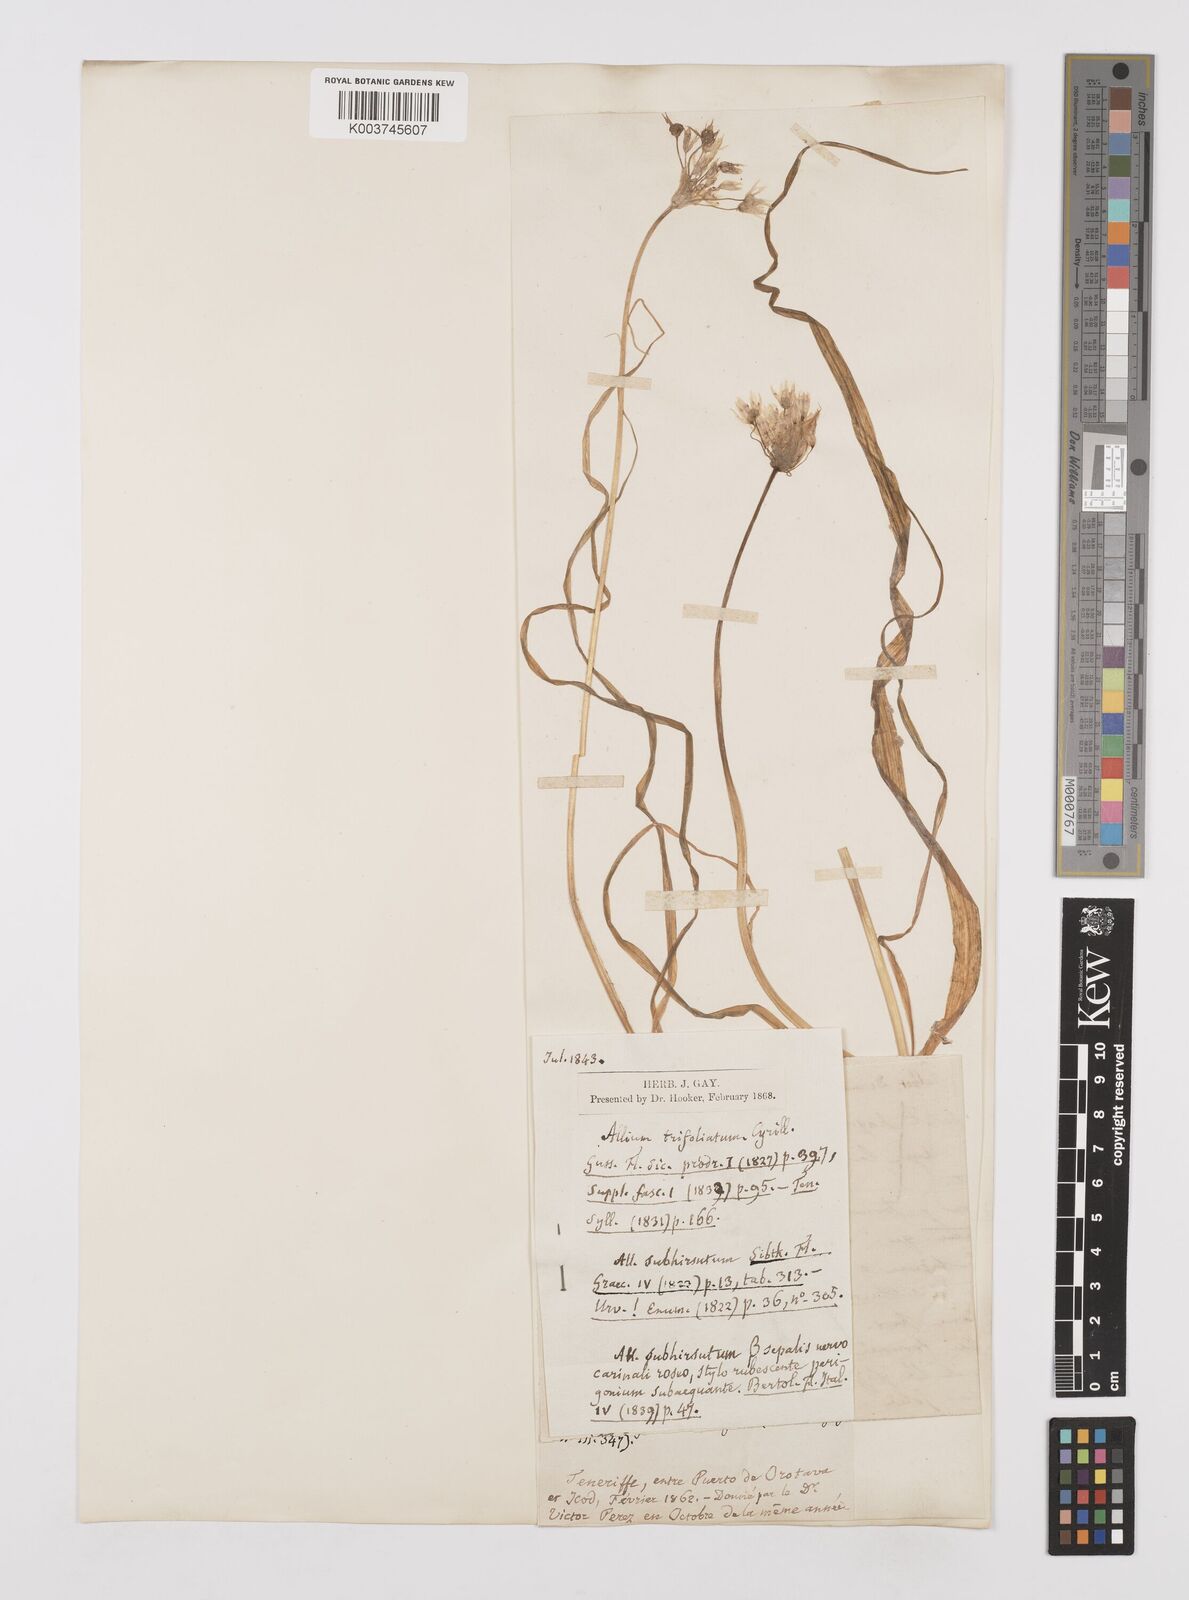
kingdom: Plantae
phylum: Tracheophyta
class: Liliopsida
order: Asparagales
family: Amaryllidaceae
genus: Allium
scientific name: Allium subvillosum
